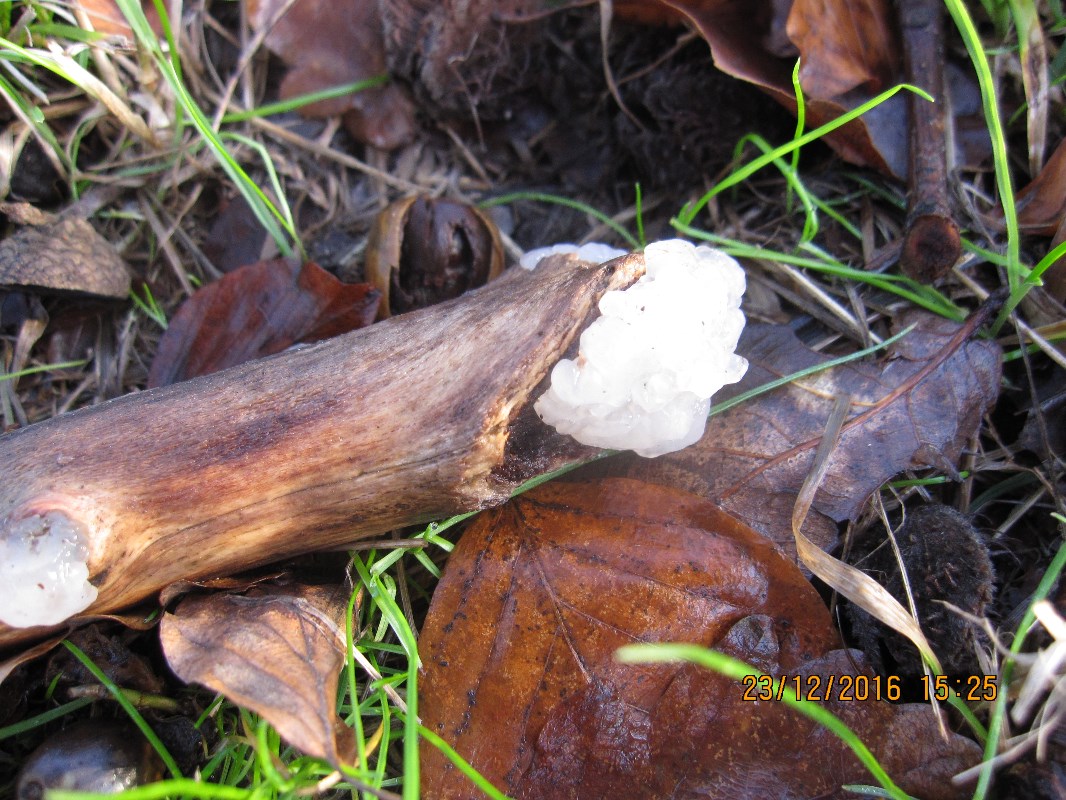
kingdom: Fungi
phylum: Basidiomycota
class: Agaricomycetes
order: Auriculariales
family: Auriculariaceae
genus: Exidia
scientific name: Exidia thuretiana
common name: hvidlig bævretop
